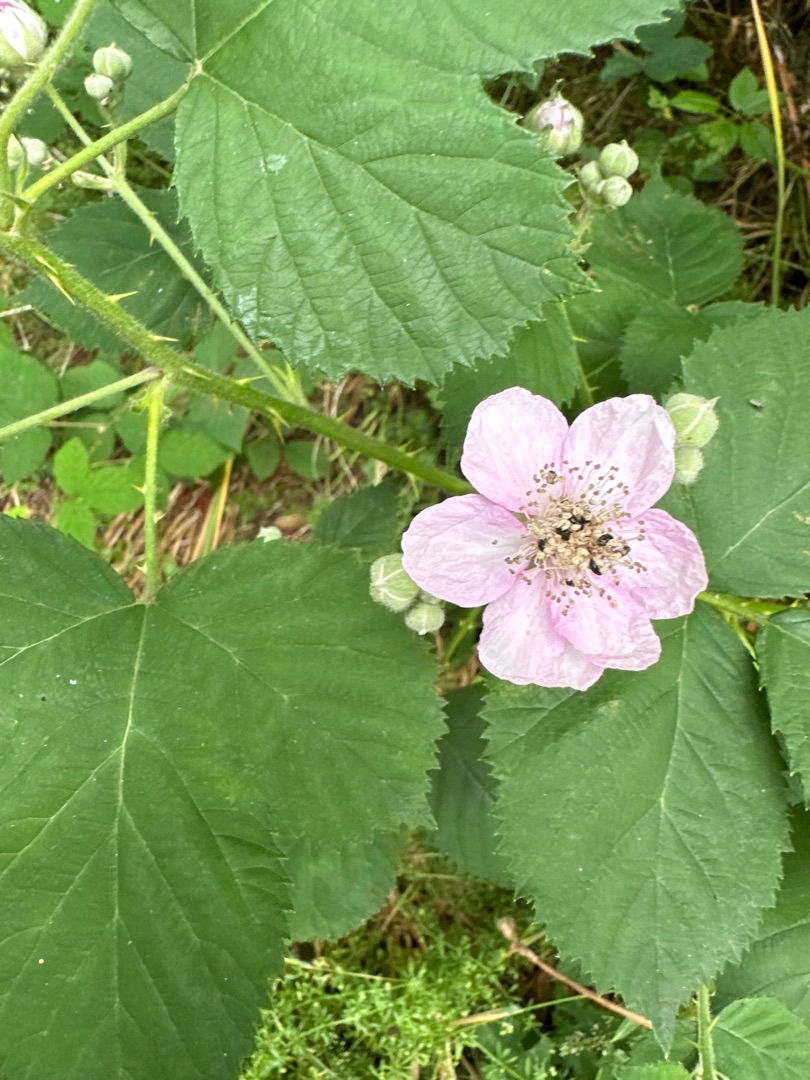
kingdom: Plantae
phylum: Tracheophyta
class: Magnoliopsida
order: Rosales
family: Rosaceae
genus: Rubus
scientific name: Rubus
